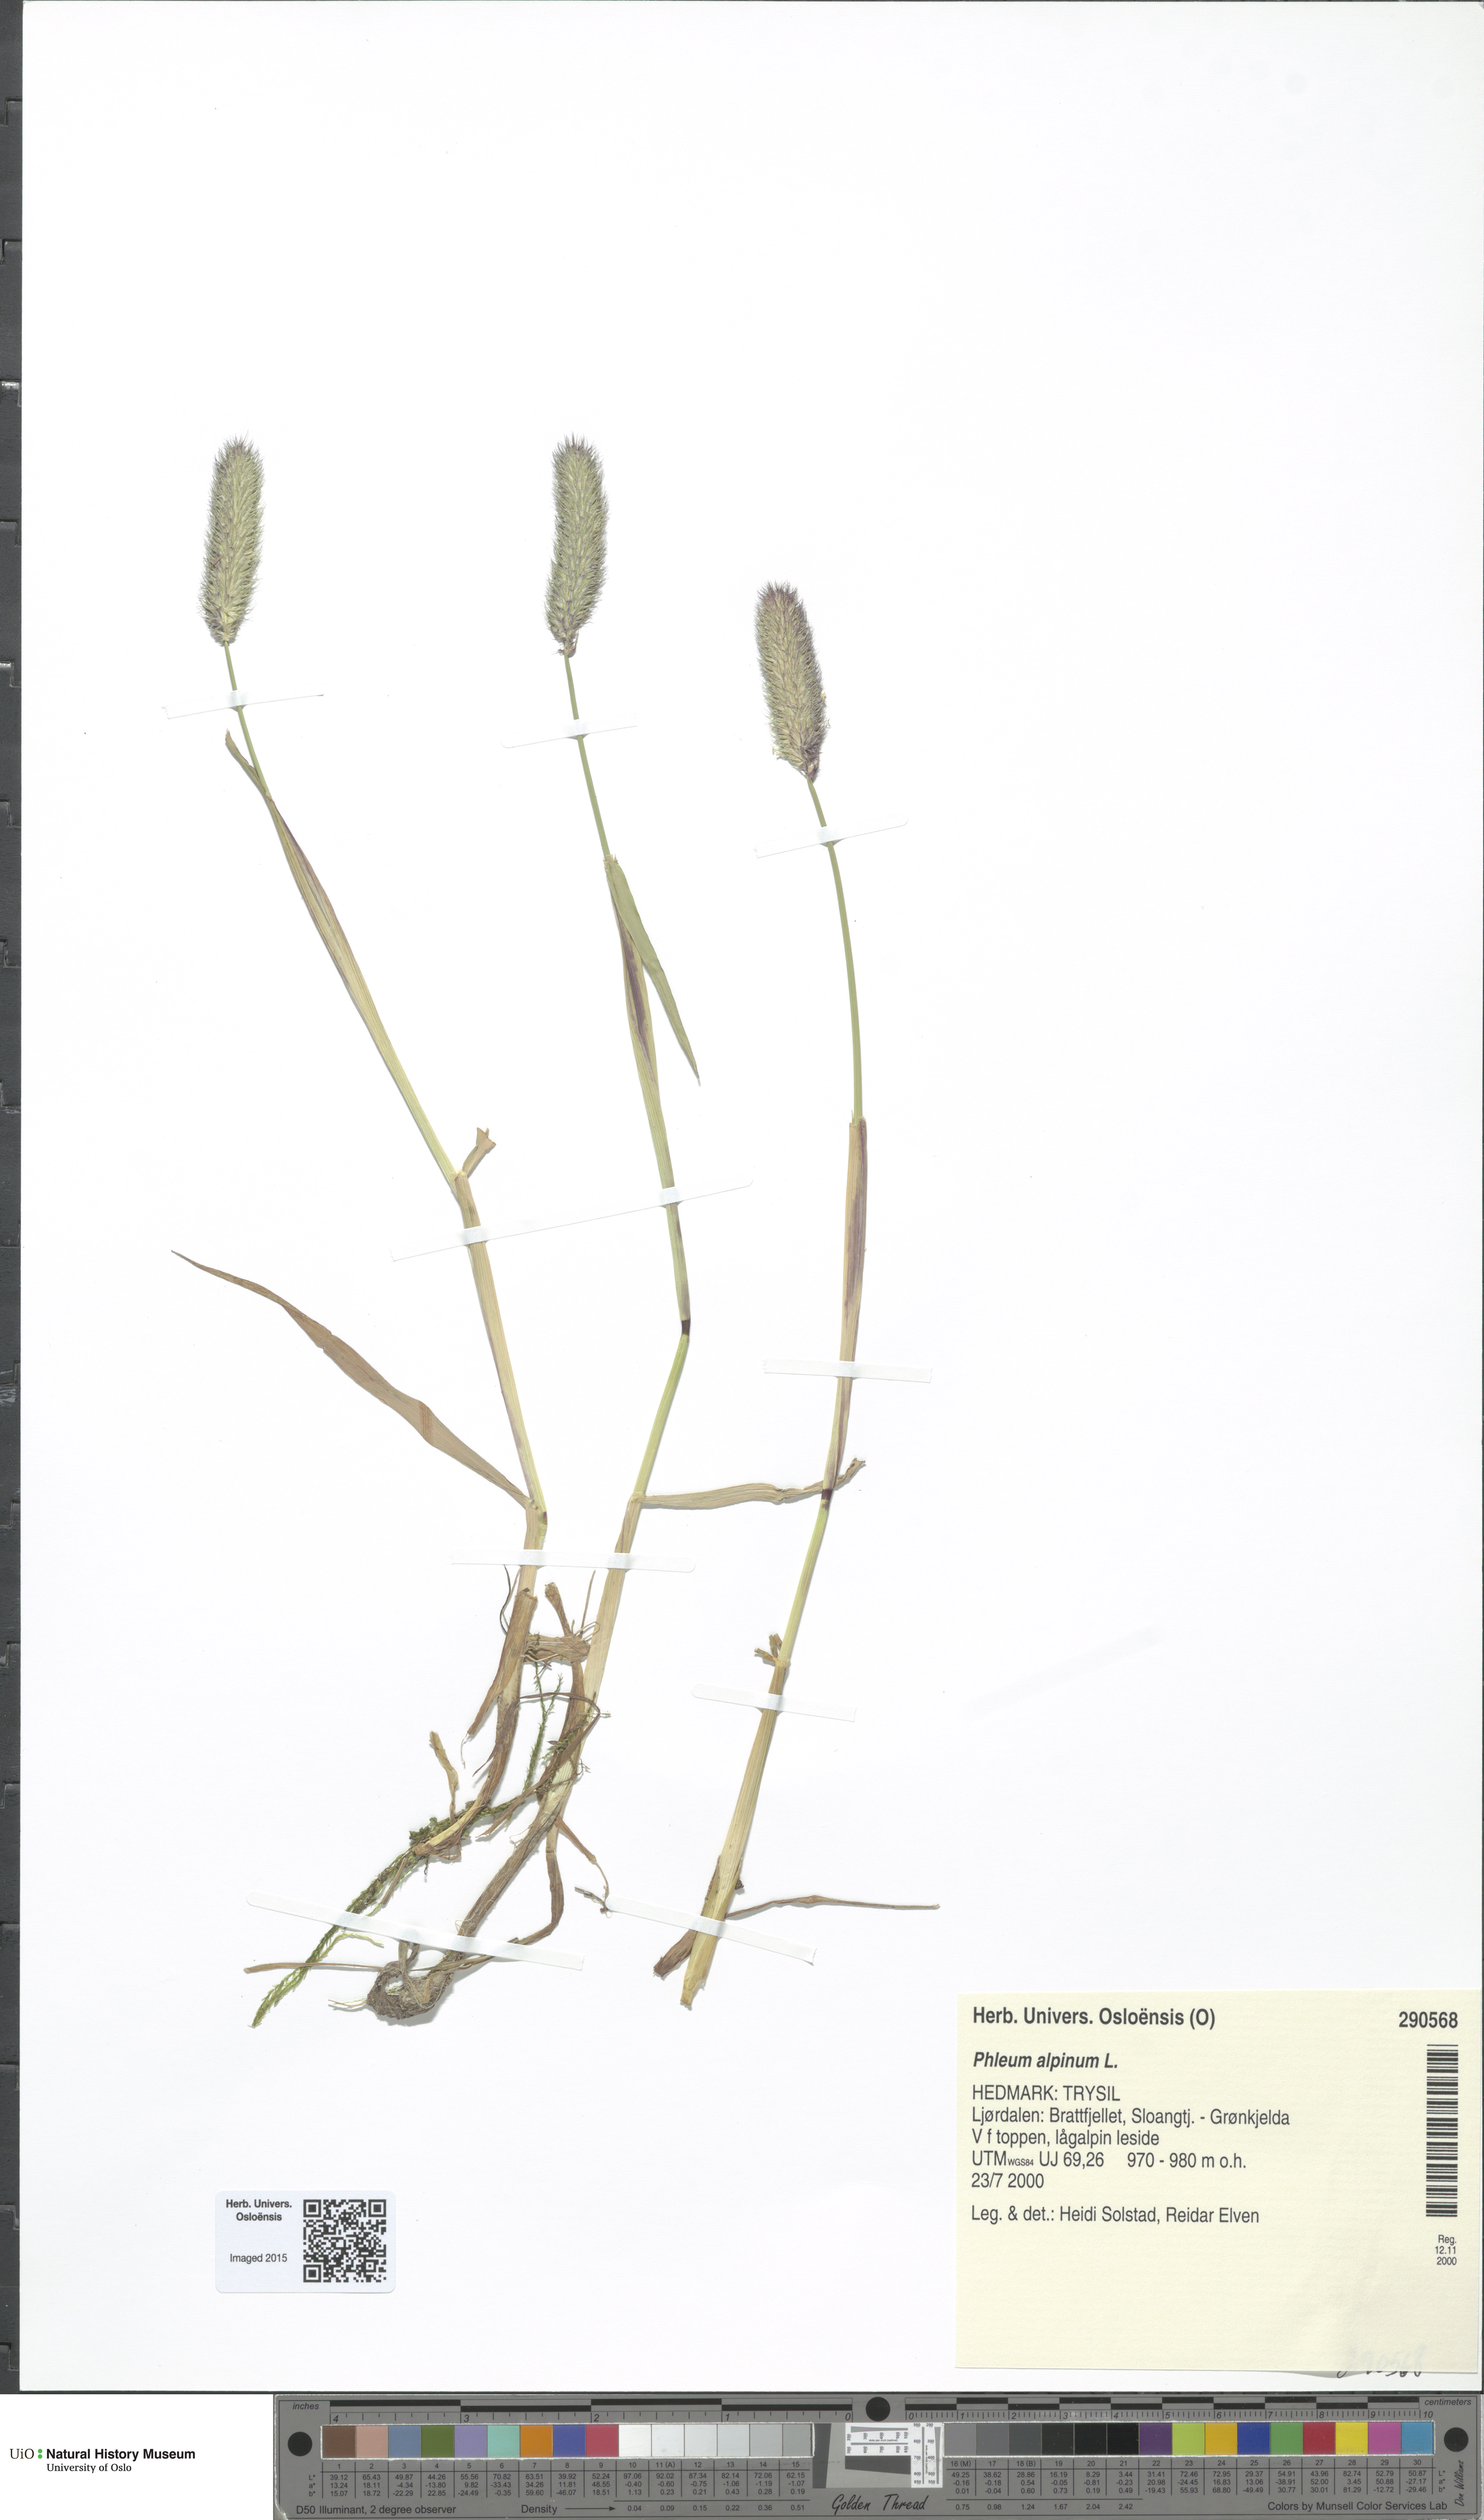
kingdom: Plantae
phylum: Tracheophyta
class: Liliopsida
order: Poales
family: Poaceae
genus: Phleum
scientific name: Phleum alpinum
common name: Alpine cat's-tail
